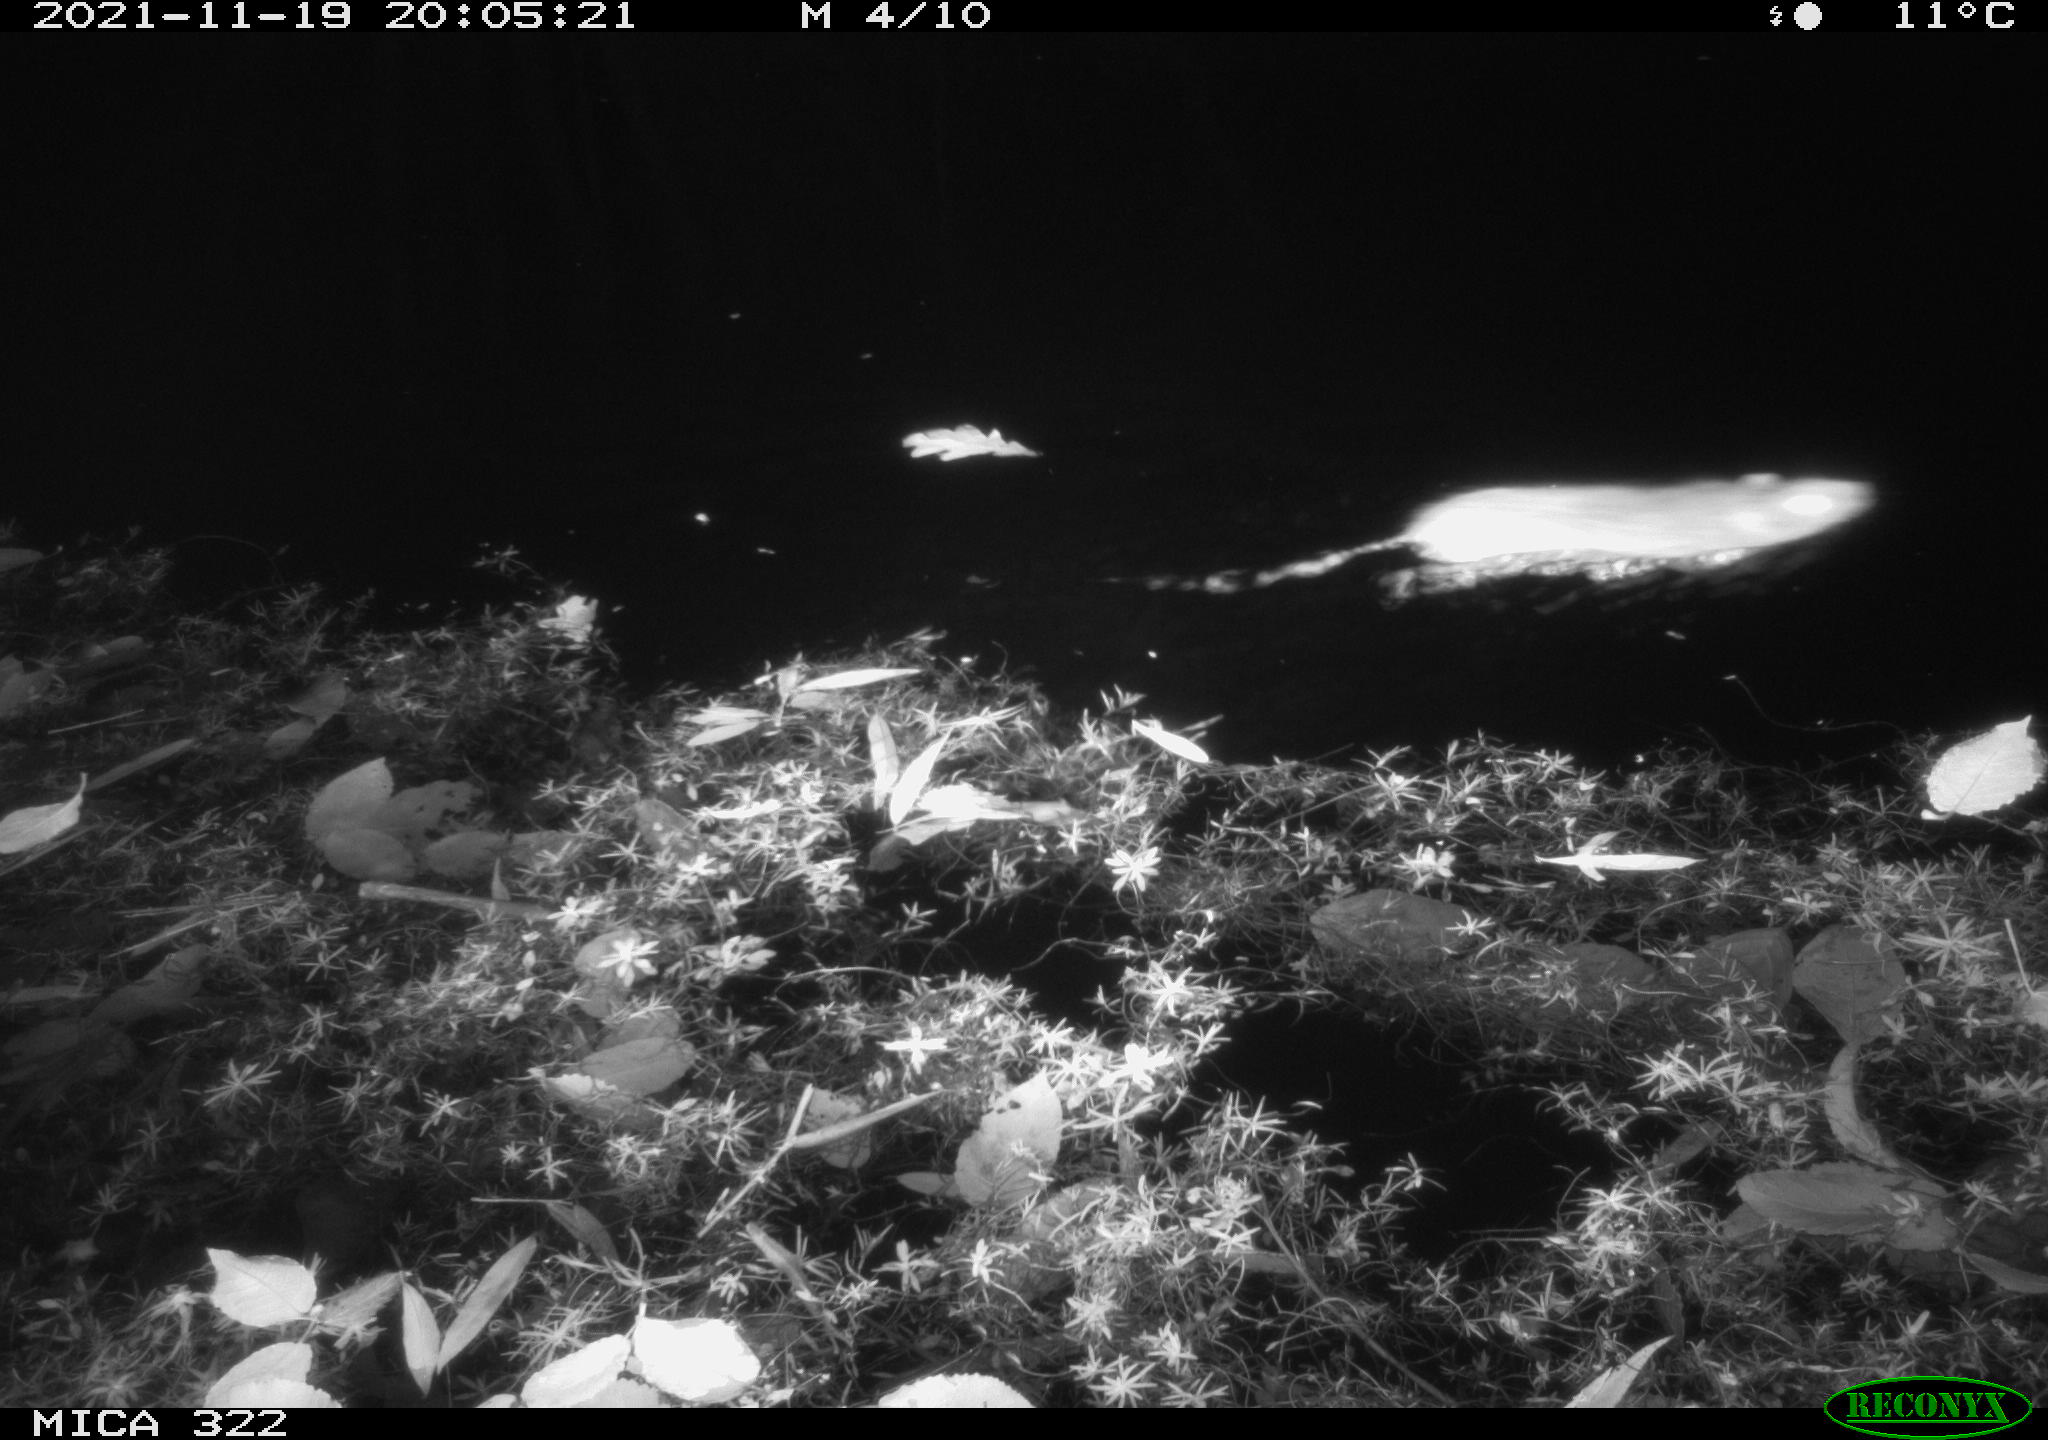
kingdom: Animalia
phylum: Chordata
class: Mammalia
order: Rodentia
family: Muridae
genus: Rattus
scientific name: Rattus norvegicus
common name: Brown rat
